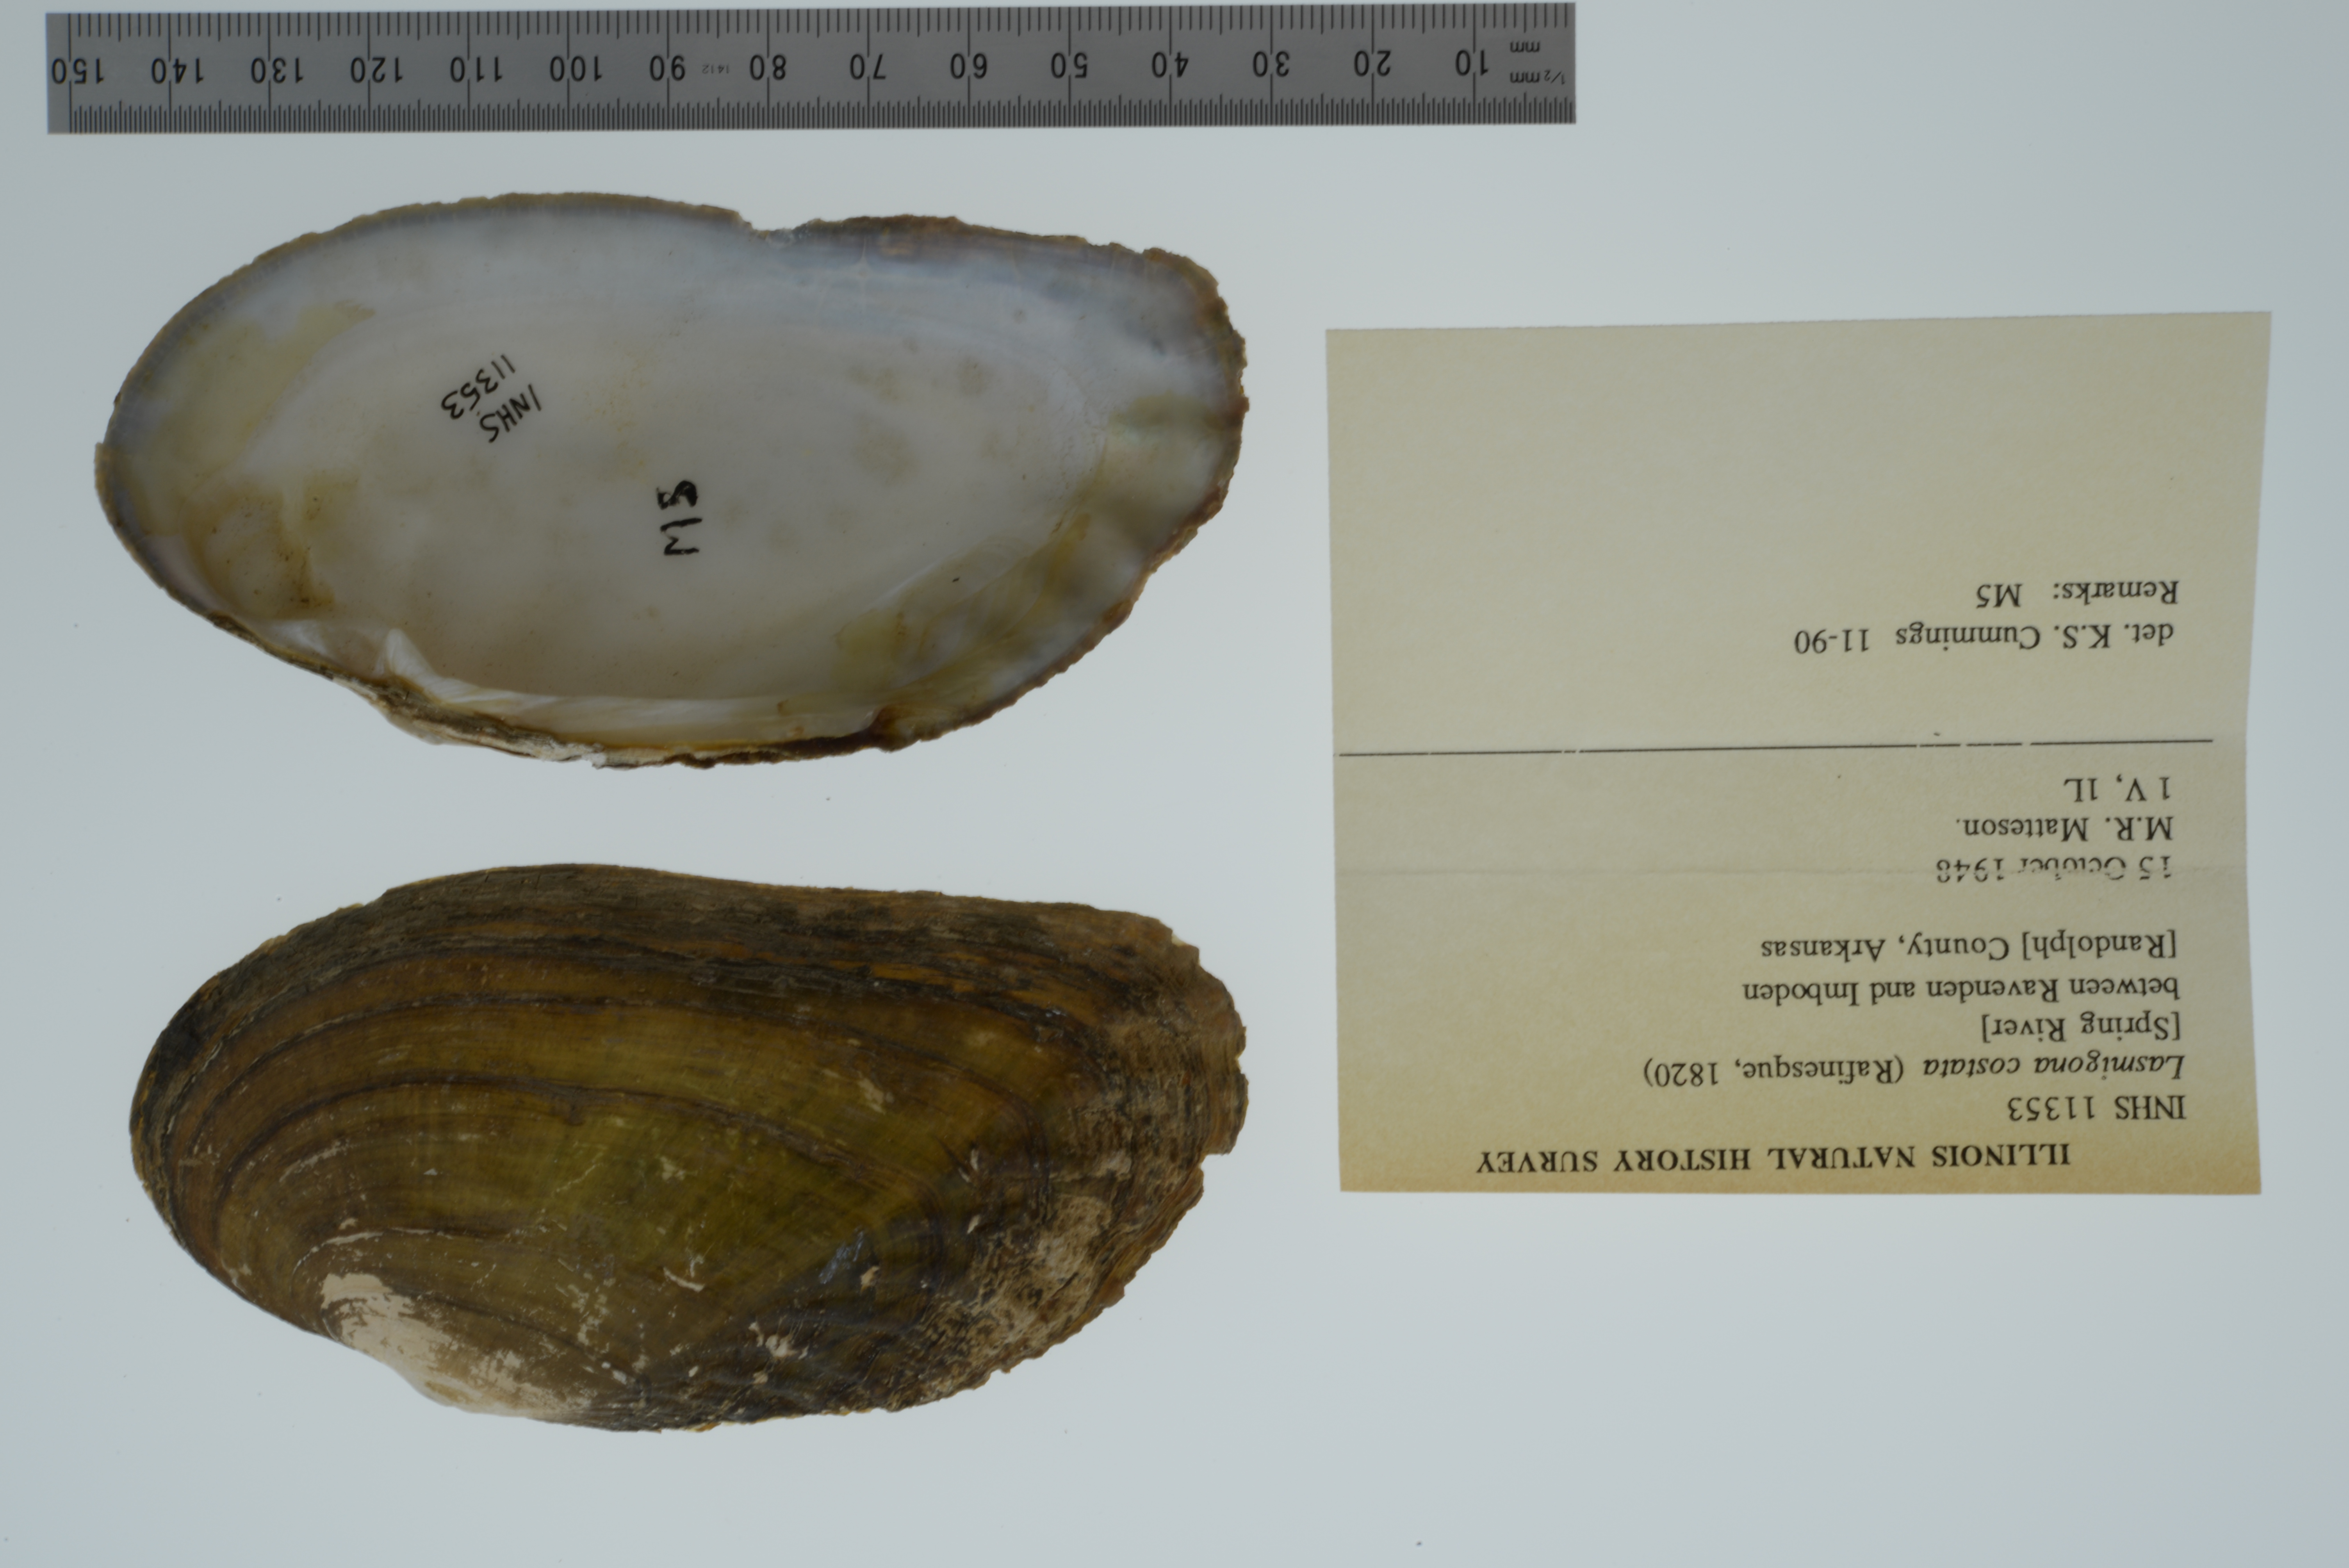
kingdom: Animalia
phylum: Mollusca
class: Bivalvia
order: Unionida
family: Unionidae
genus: Lasmigona
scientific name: Lasmigona costata
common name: Flutedshell
